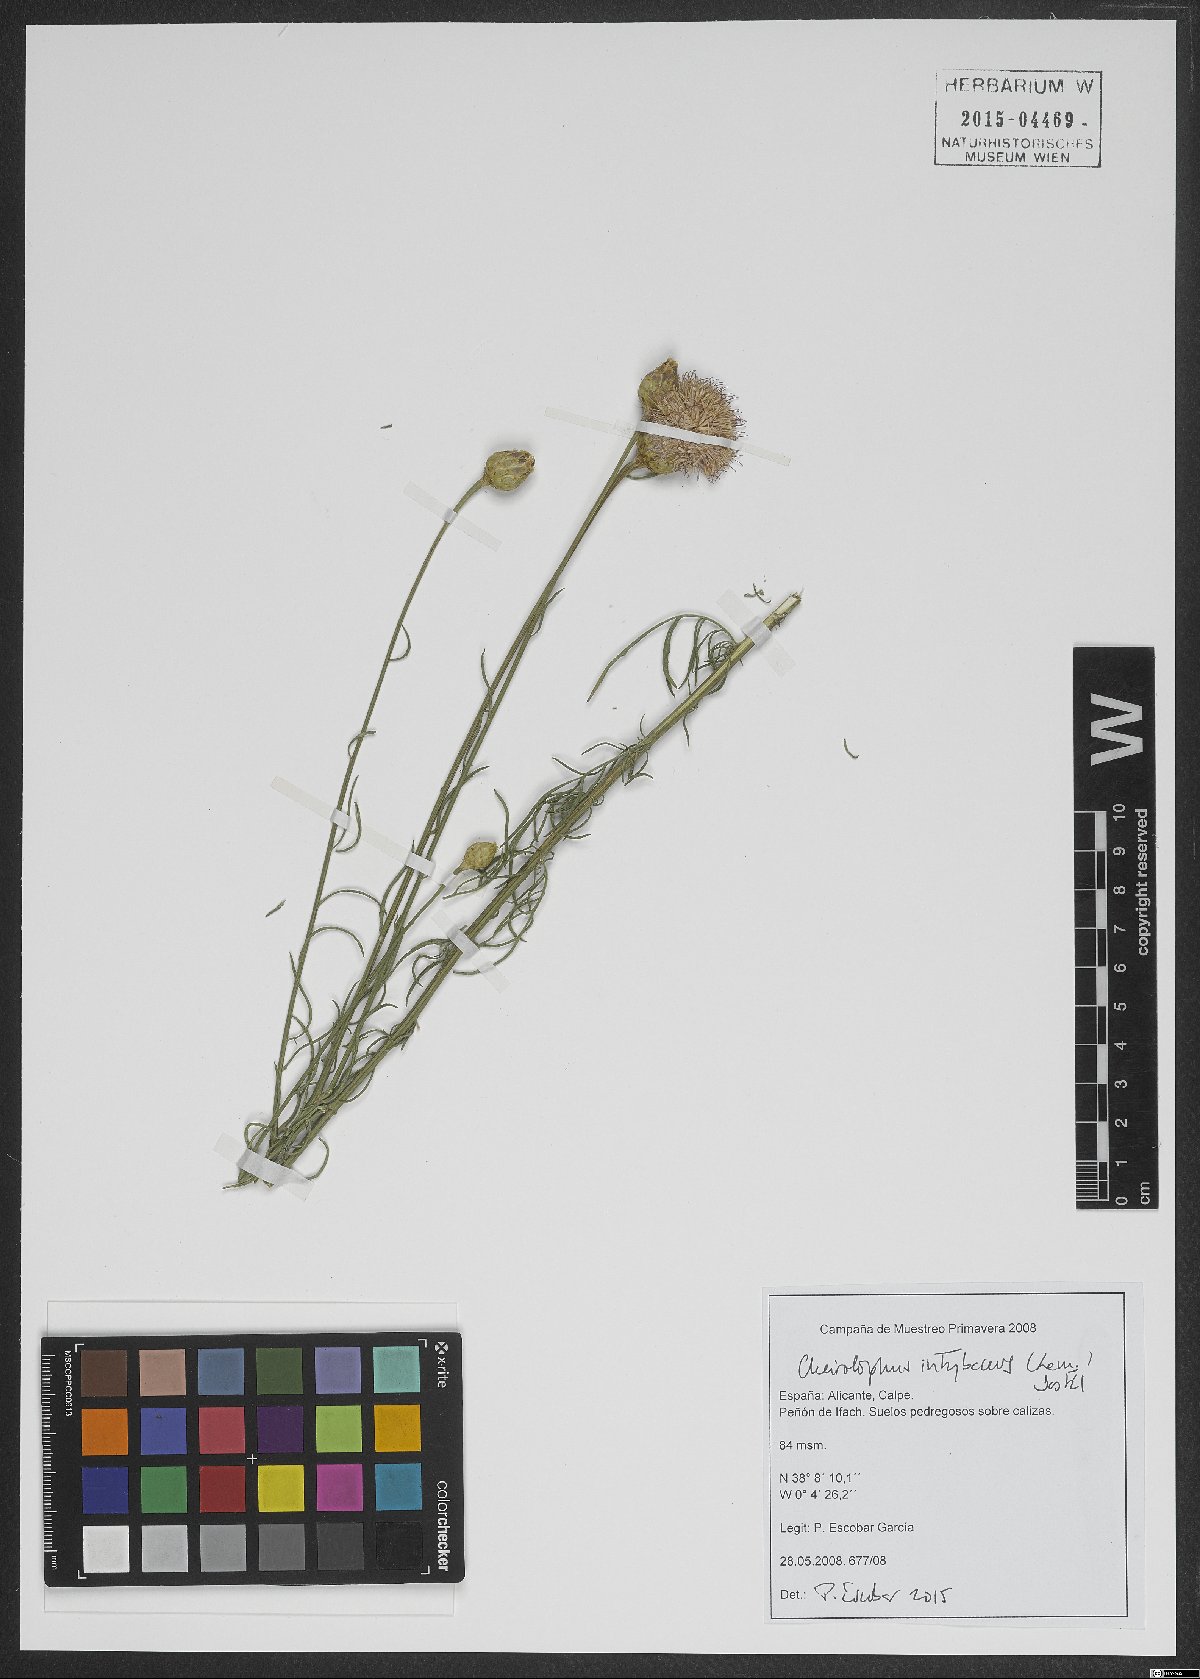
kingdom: Plantae
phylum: Tracheophyta
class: Magnoliopsida
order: Asterales
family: Asteraceae
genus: Cheirolophus
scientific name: Cheirolophus intybaceus
